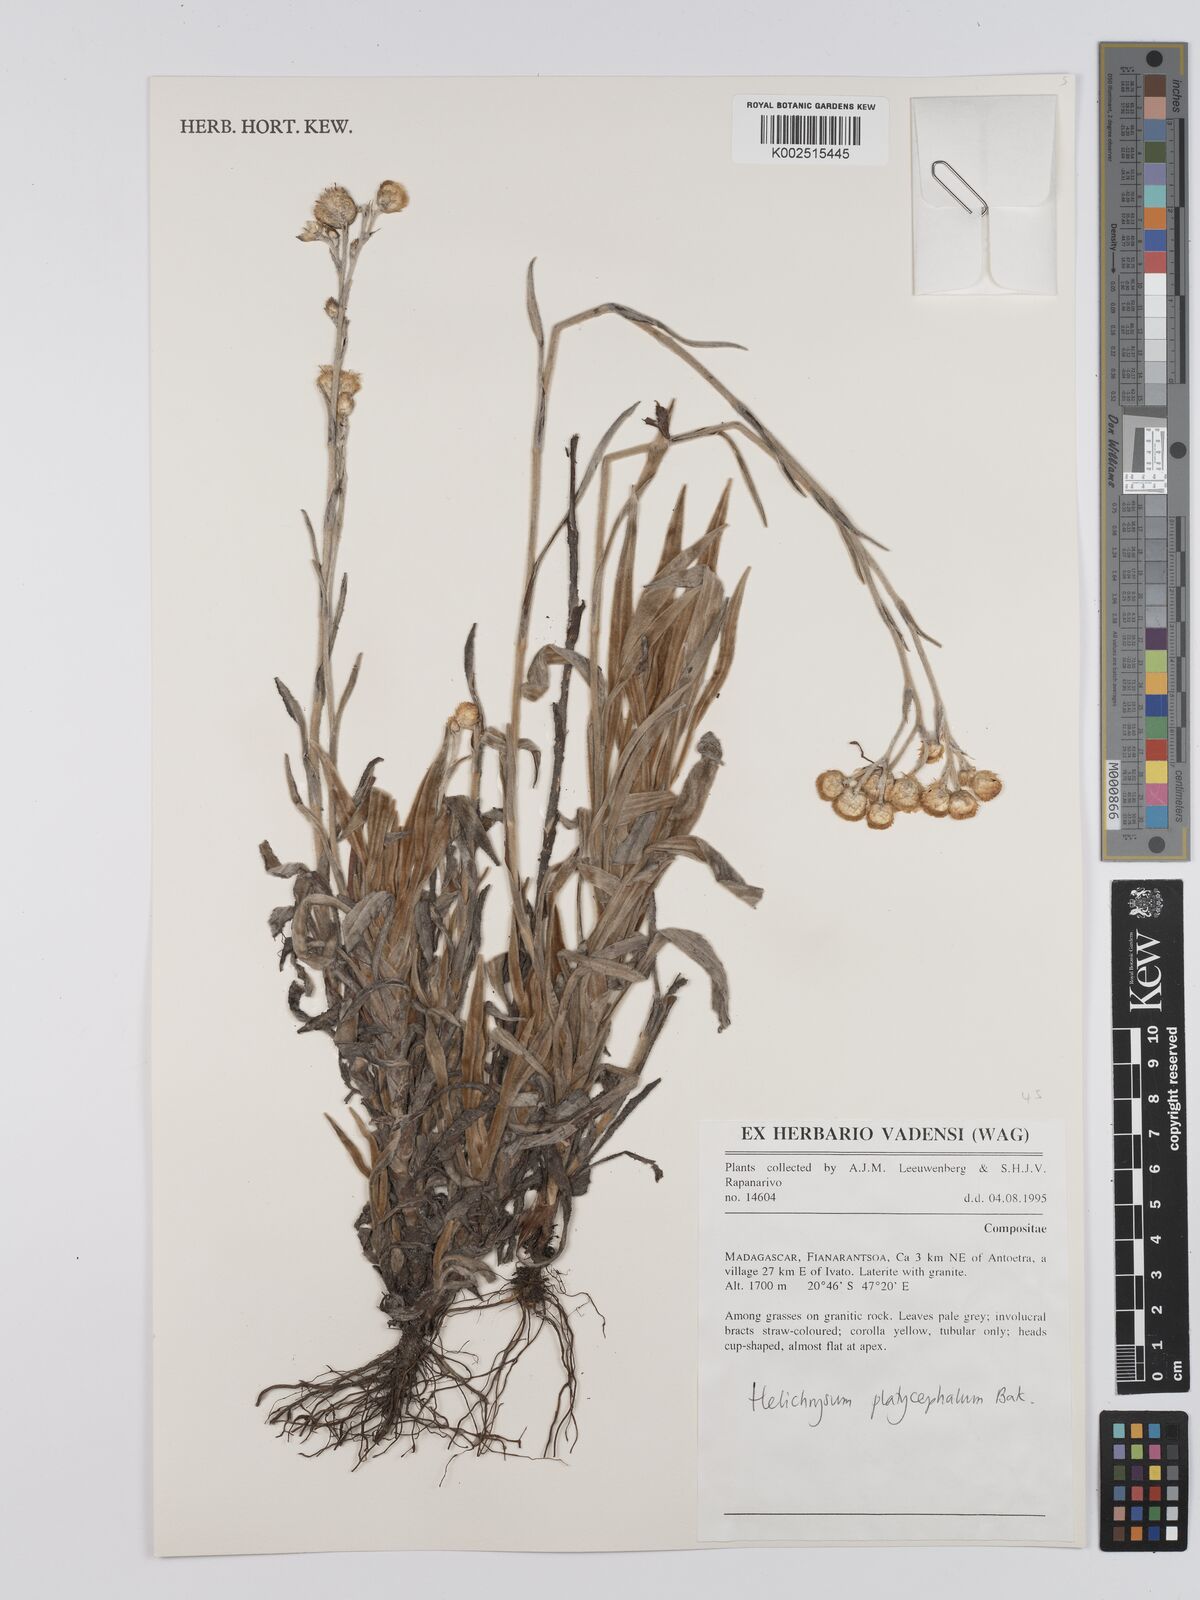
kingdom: Plantae
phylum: Tracheophyta
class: Magnoliopsida
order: Asterales
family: Asteraceae
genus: Helichrysum
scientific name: Helichrysum platycephalum
